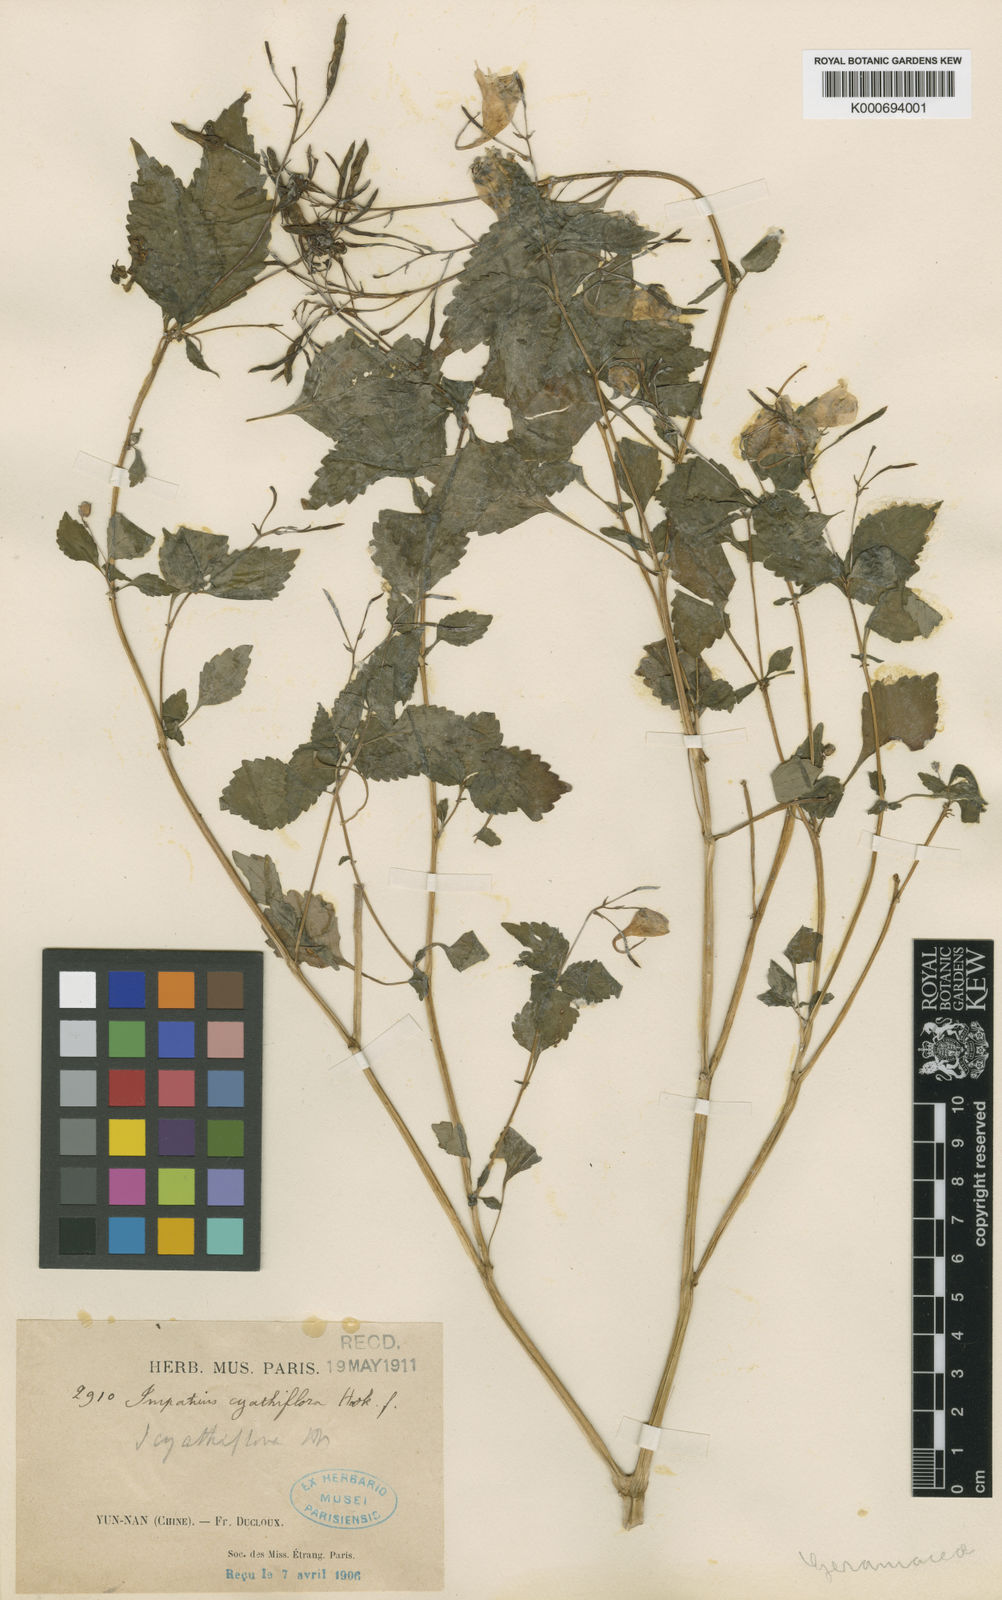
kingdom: Plantae
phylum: Tracheophyta
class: Magnoliopsida
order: Ericales
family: Balsaminaceae
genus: Impatiens
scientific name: Impatiens cyathiflora
